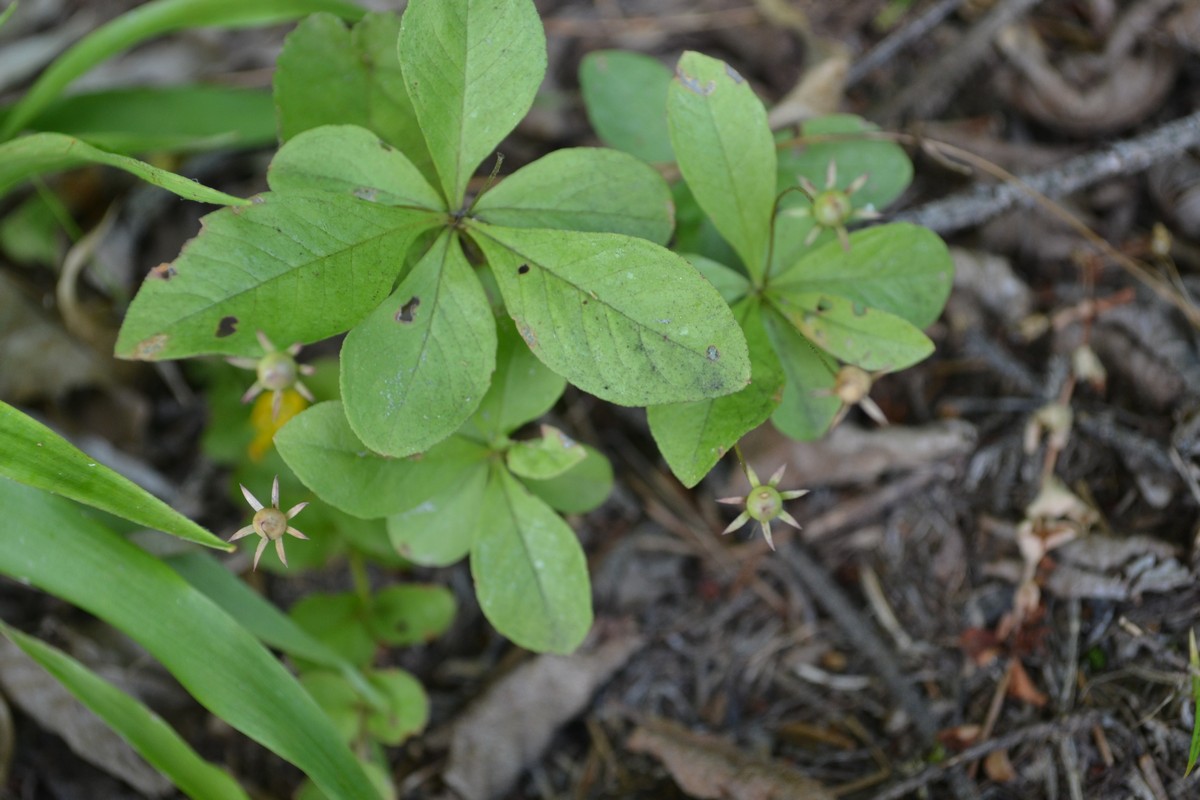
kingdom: Plantae
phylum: Tracheophyta
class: Magnoliopsida
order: Ericales
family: Primulaceae
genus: Lysimachia
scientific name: Lysimachia europaea
